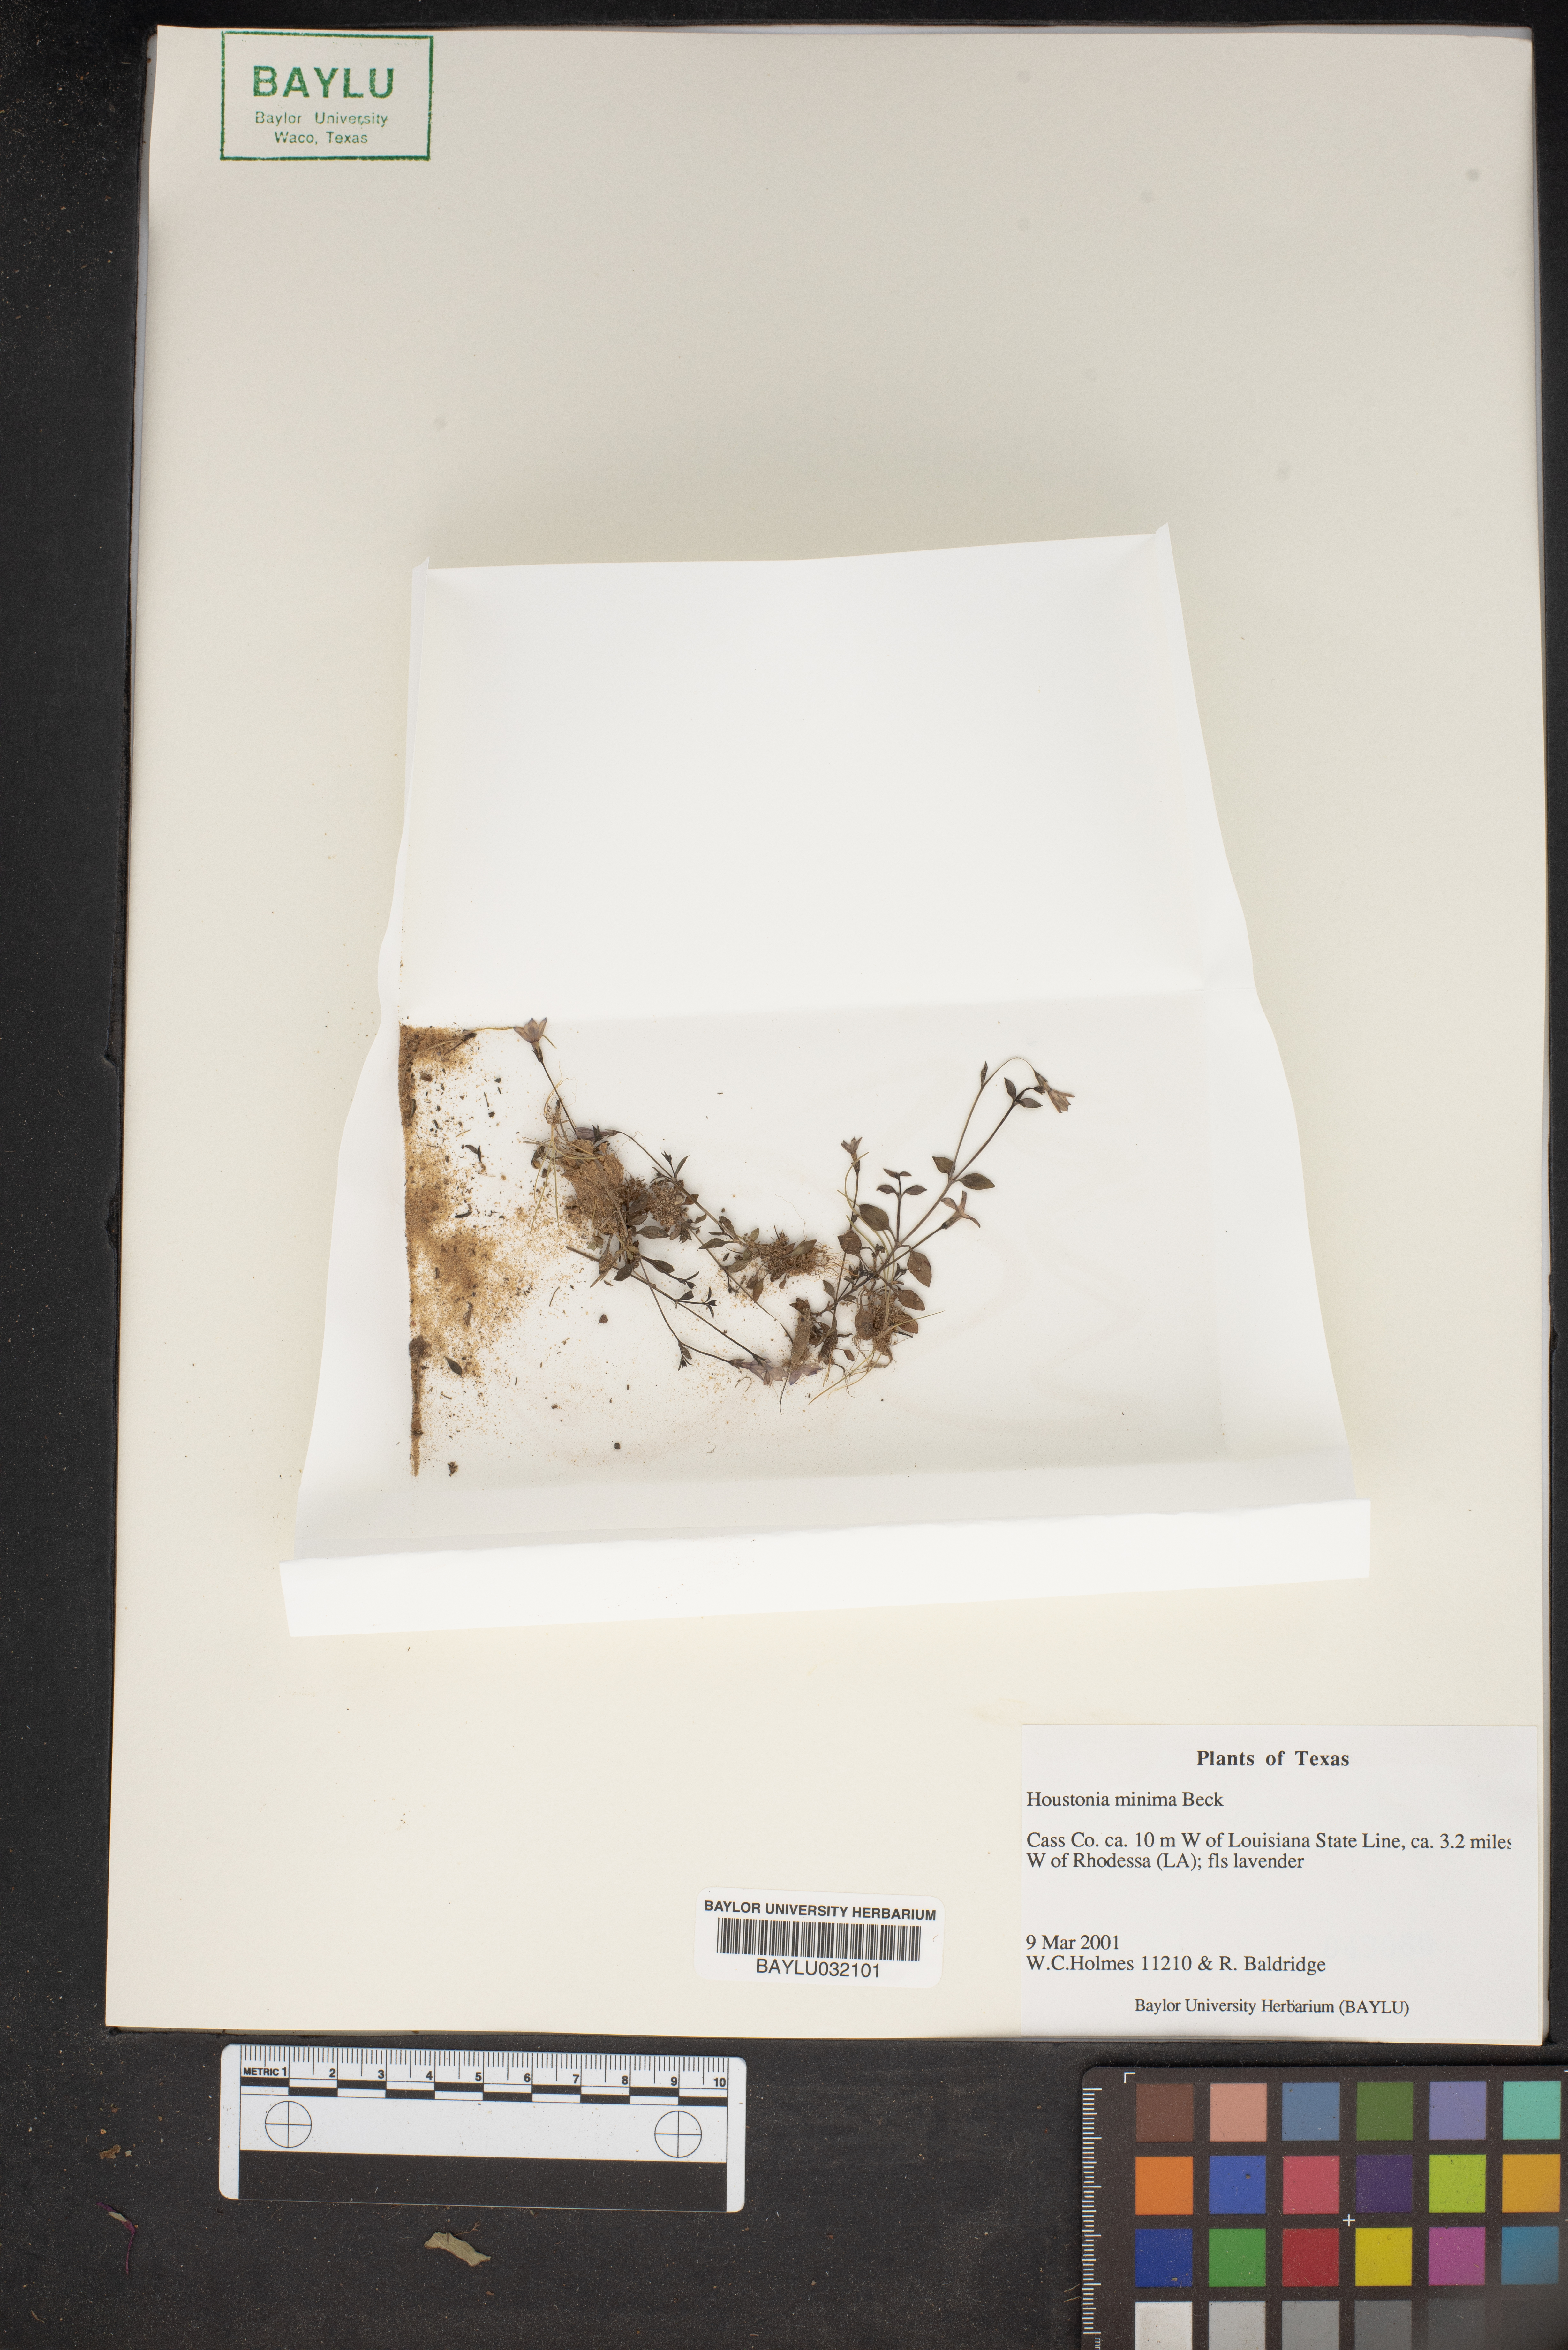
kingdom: Plantae
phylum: Tracheophyta
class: Magnoliopsida
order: Gentianales
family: Rubiaceae
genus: Houstonia
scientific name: Houstonia pusilla
